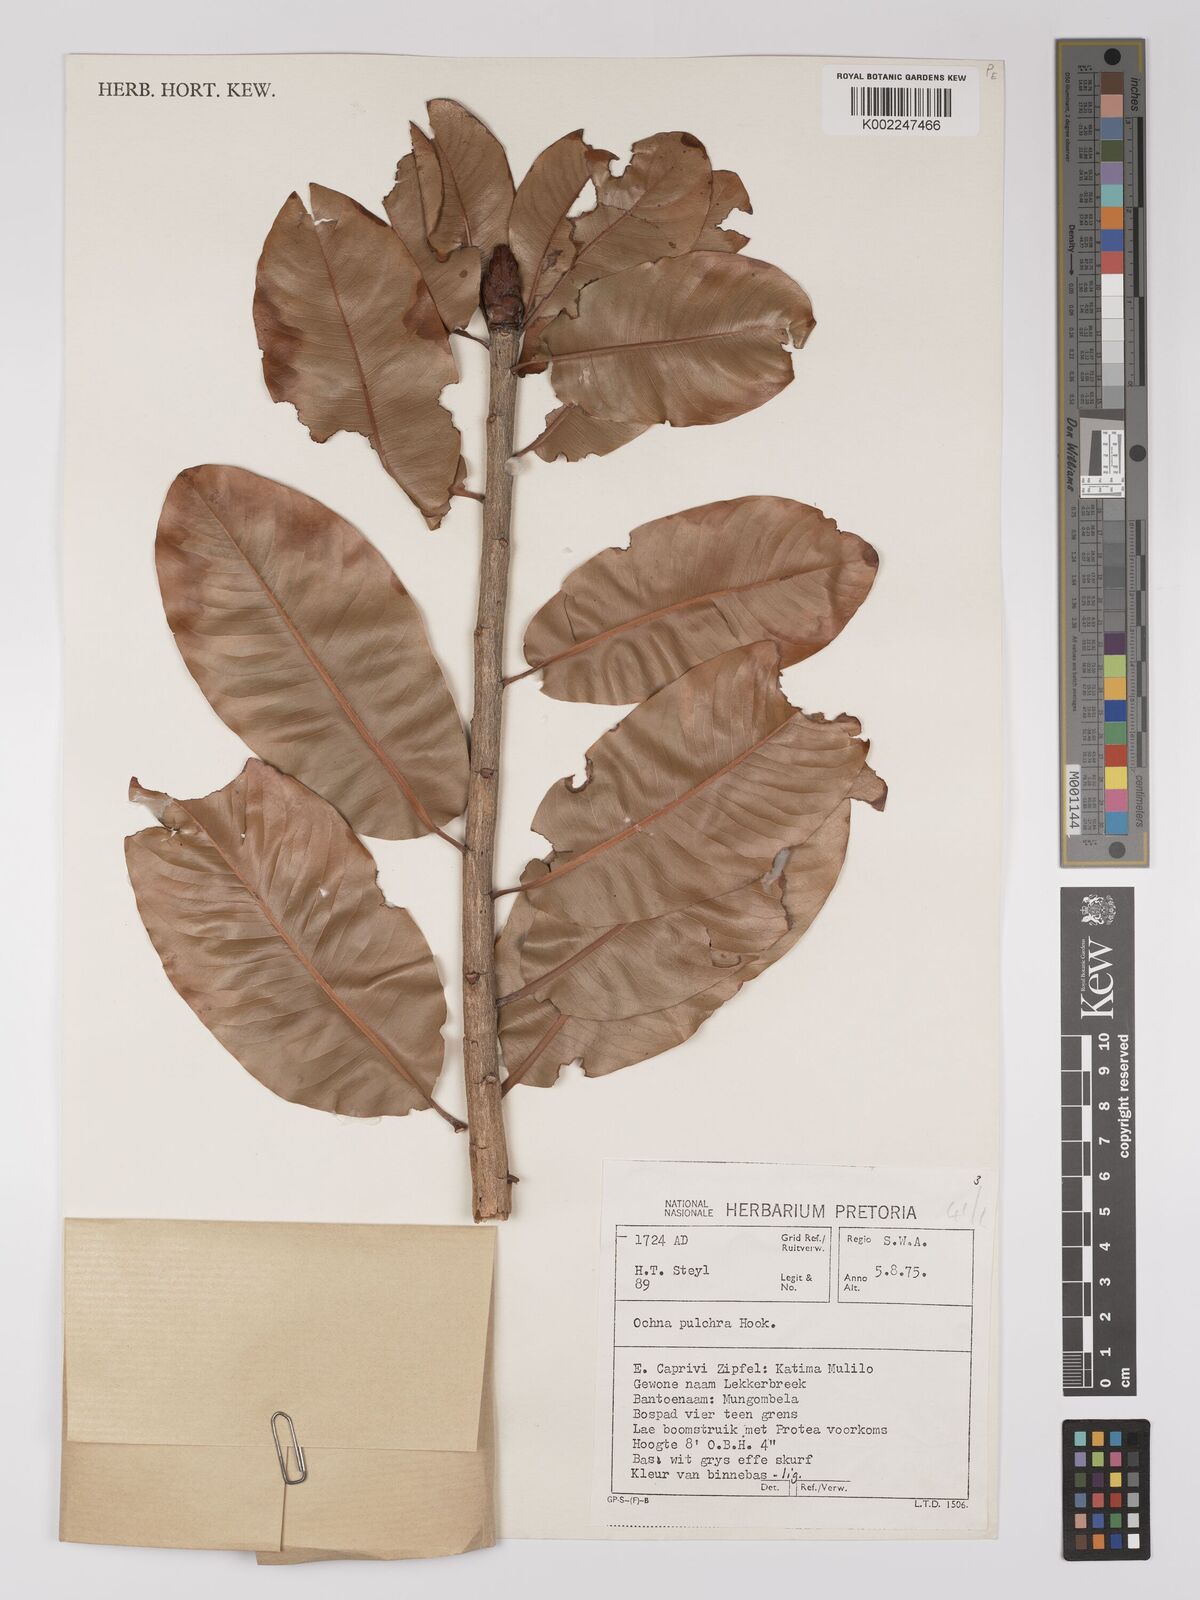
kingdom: Plantae
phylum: Tracheophyta
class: Magnoliopsida
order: Malpighiales
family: Ochnaceae
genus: Ochna
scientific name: Ochna pulchra
